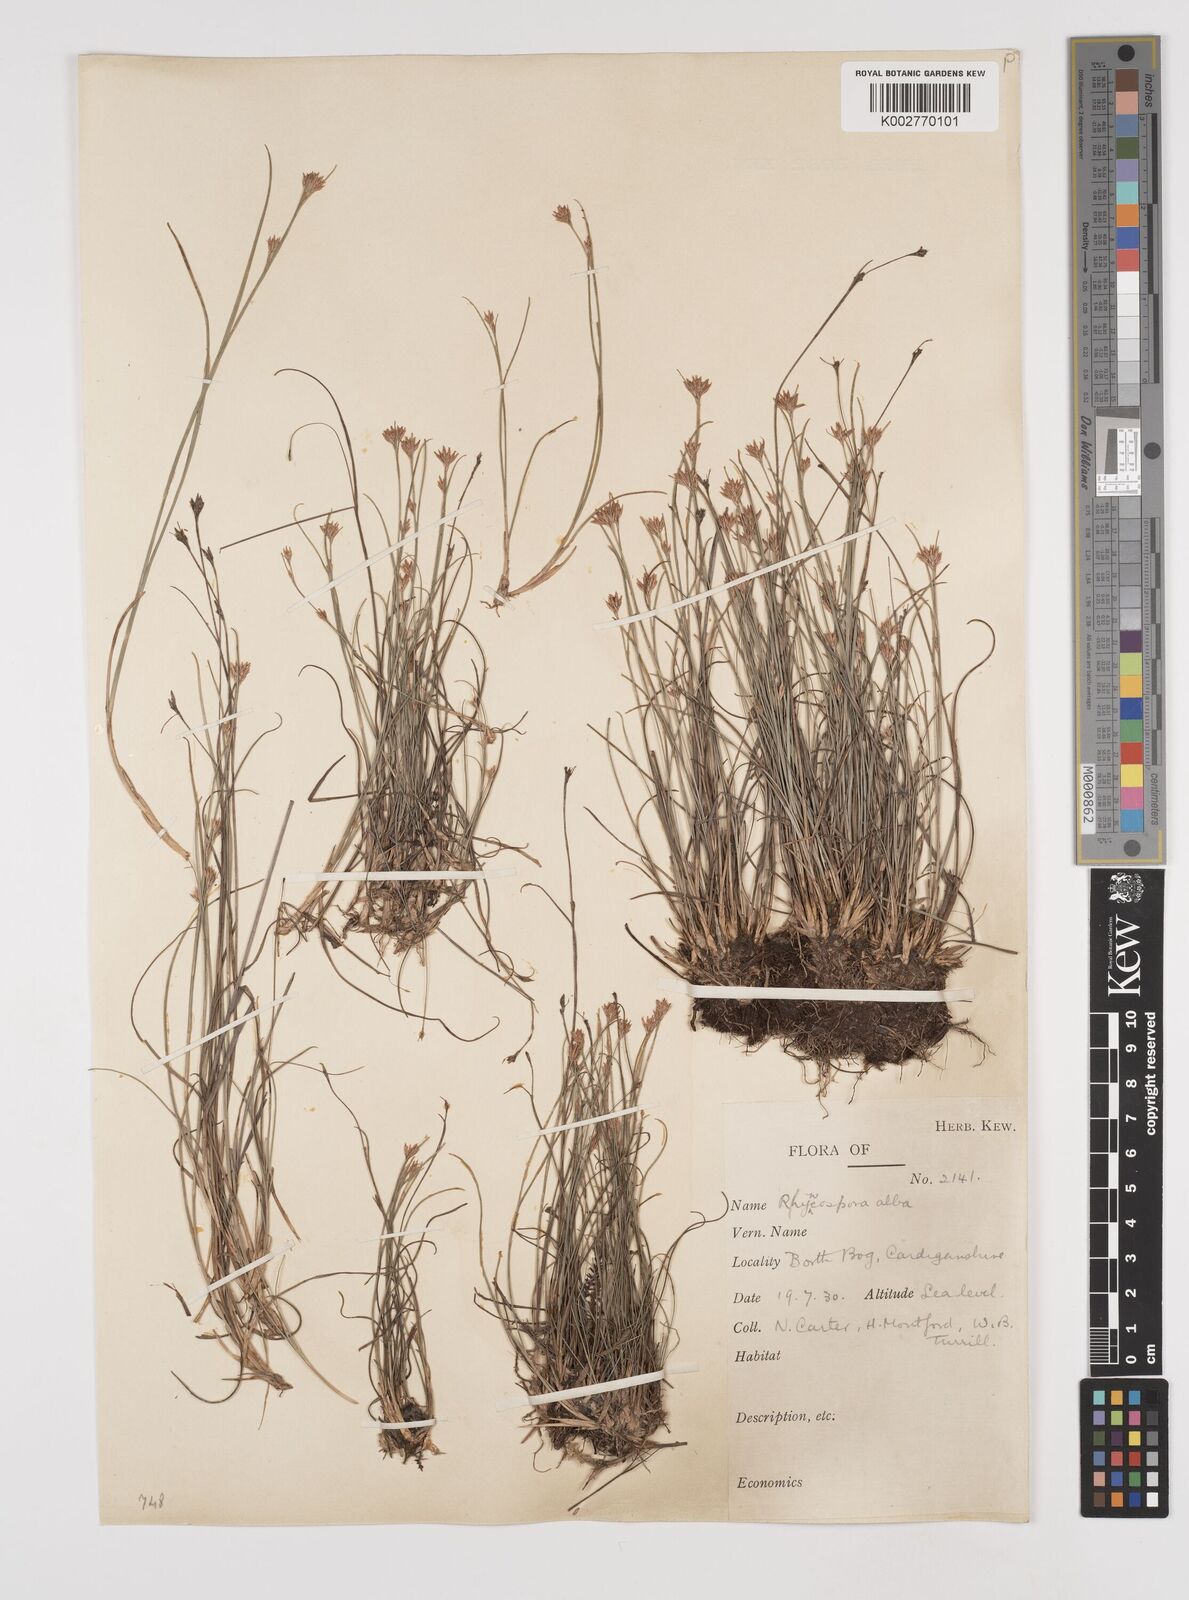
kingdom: Plantae
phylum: Tracheophyta
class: Liliopsida
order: Poales
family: Cyperaceae
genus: Rhynchospora
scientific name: Rhynchospora alba
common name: White beak-sedge
